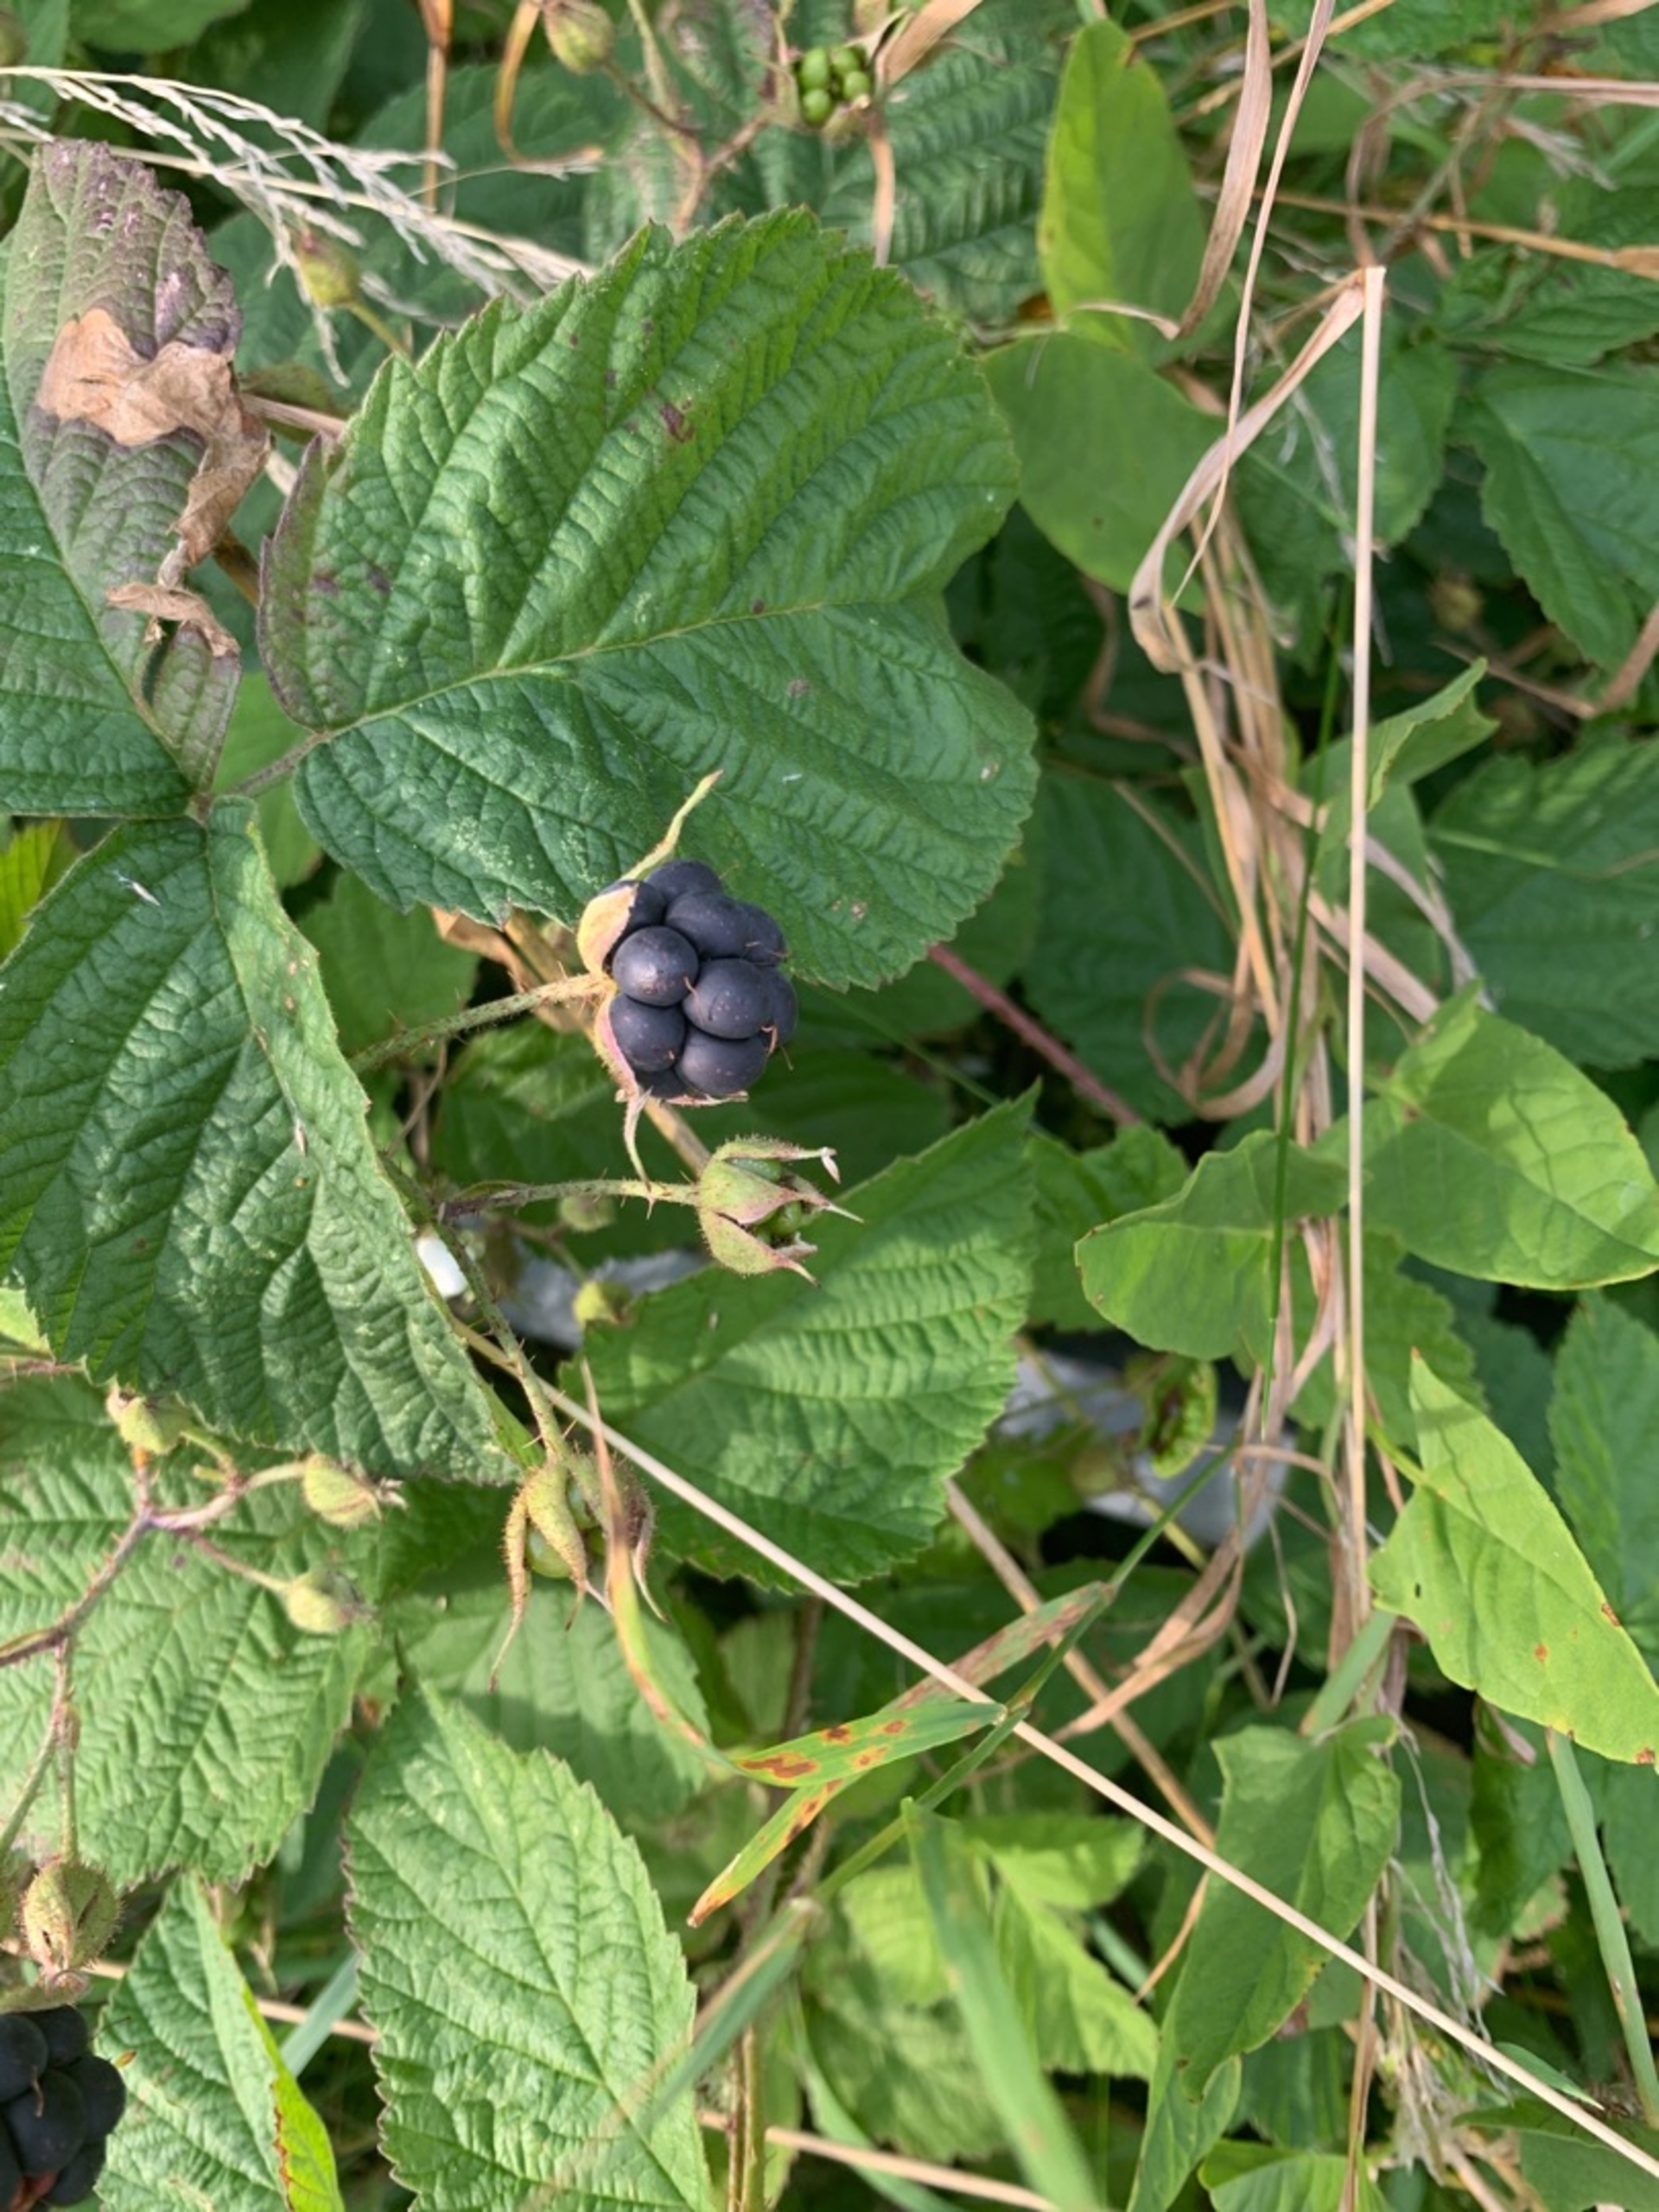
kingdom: Plantae
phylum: Tracheophyta
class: Magnoliopsida
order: Rosales
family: Rosaceae
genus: Rubus
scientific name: Rubus caesius
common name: Korbær
